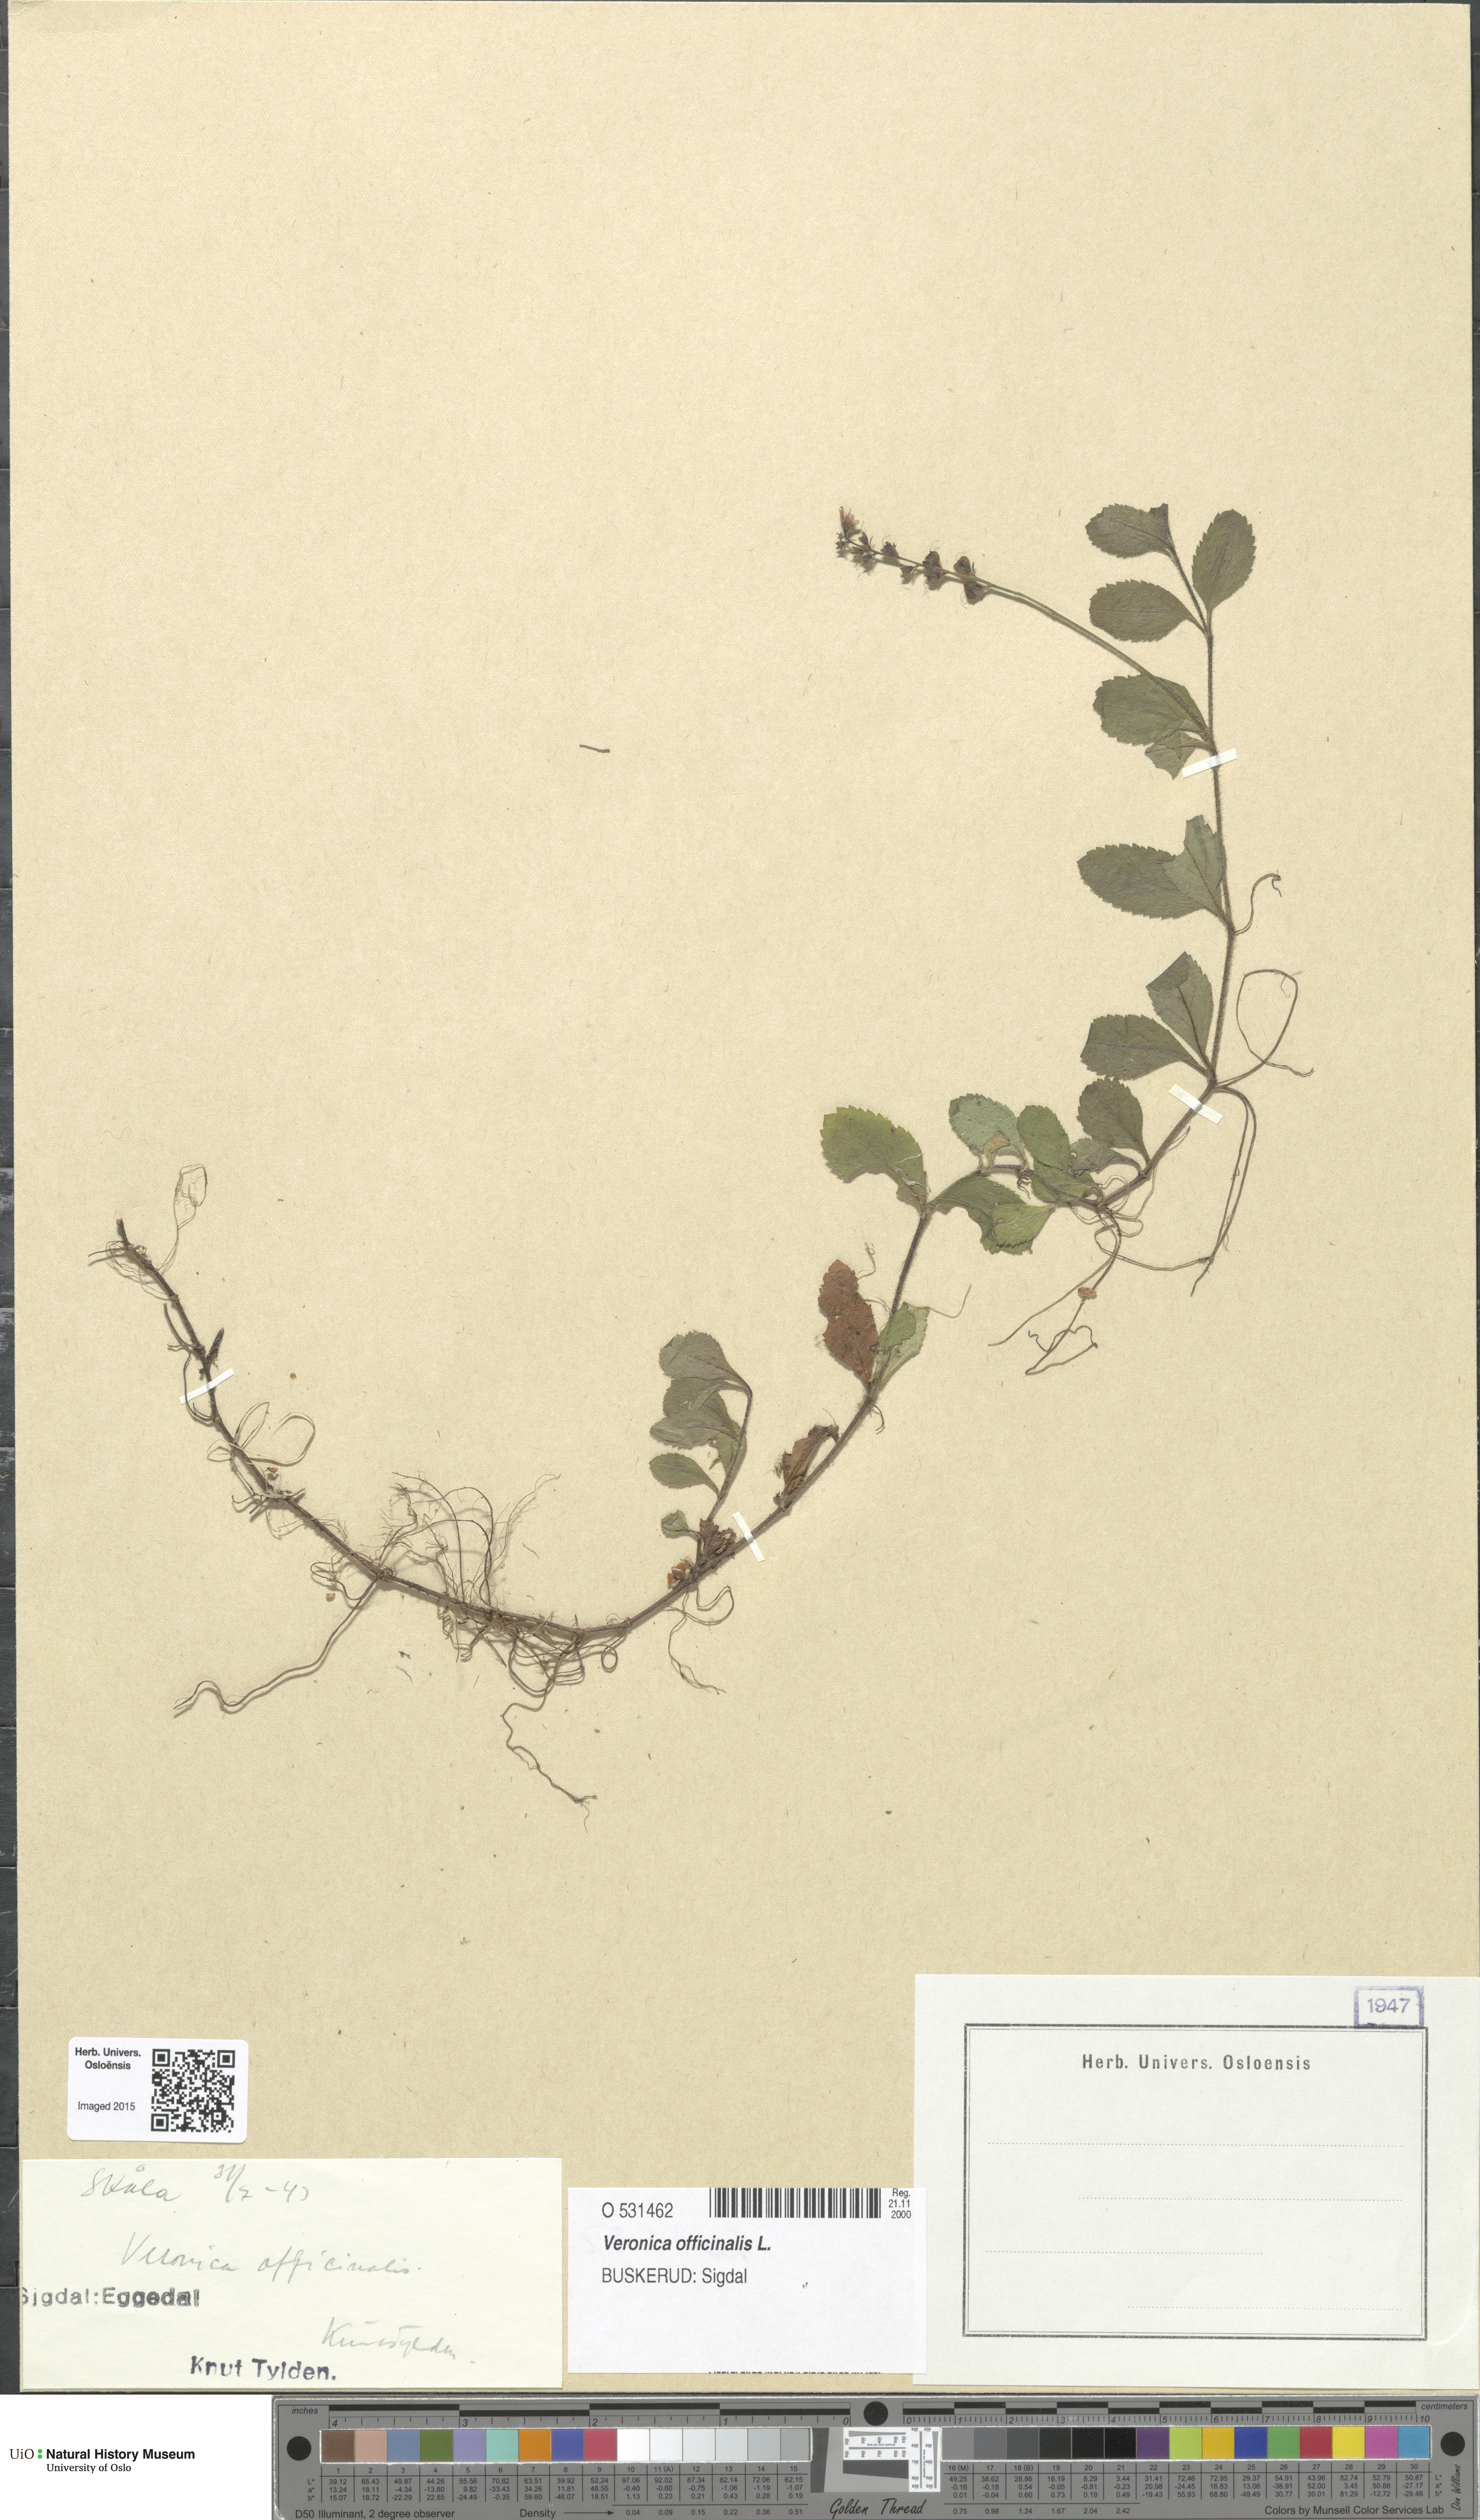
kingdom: Plantae
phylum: Tracheophyta
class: Magnoliopsida
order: Lamiales
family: Plantaginaceae
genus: Veronica
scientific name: Veronica officinalis
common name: Common speedwell
